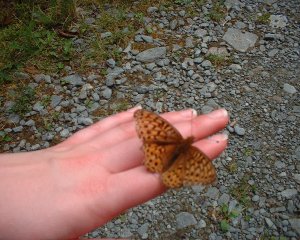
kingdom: Animalia
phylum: Arthropoda
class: Insecta
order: Lepidoptera
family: Nymphalidae
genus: Speyeria
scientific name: Speyeria cybele
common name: Great Spangled Fritillary
